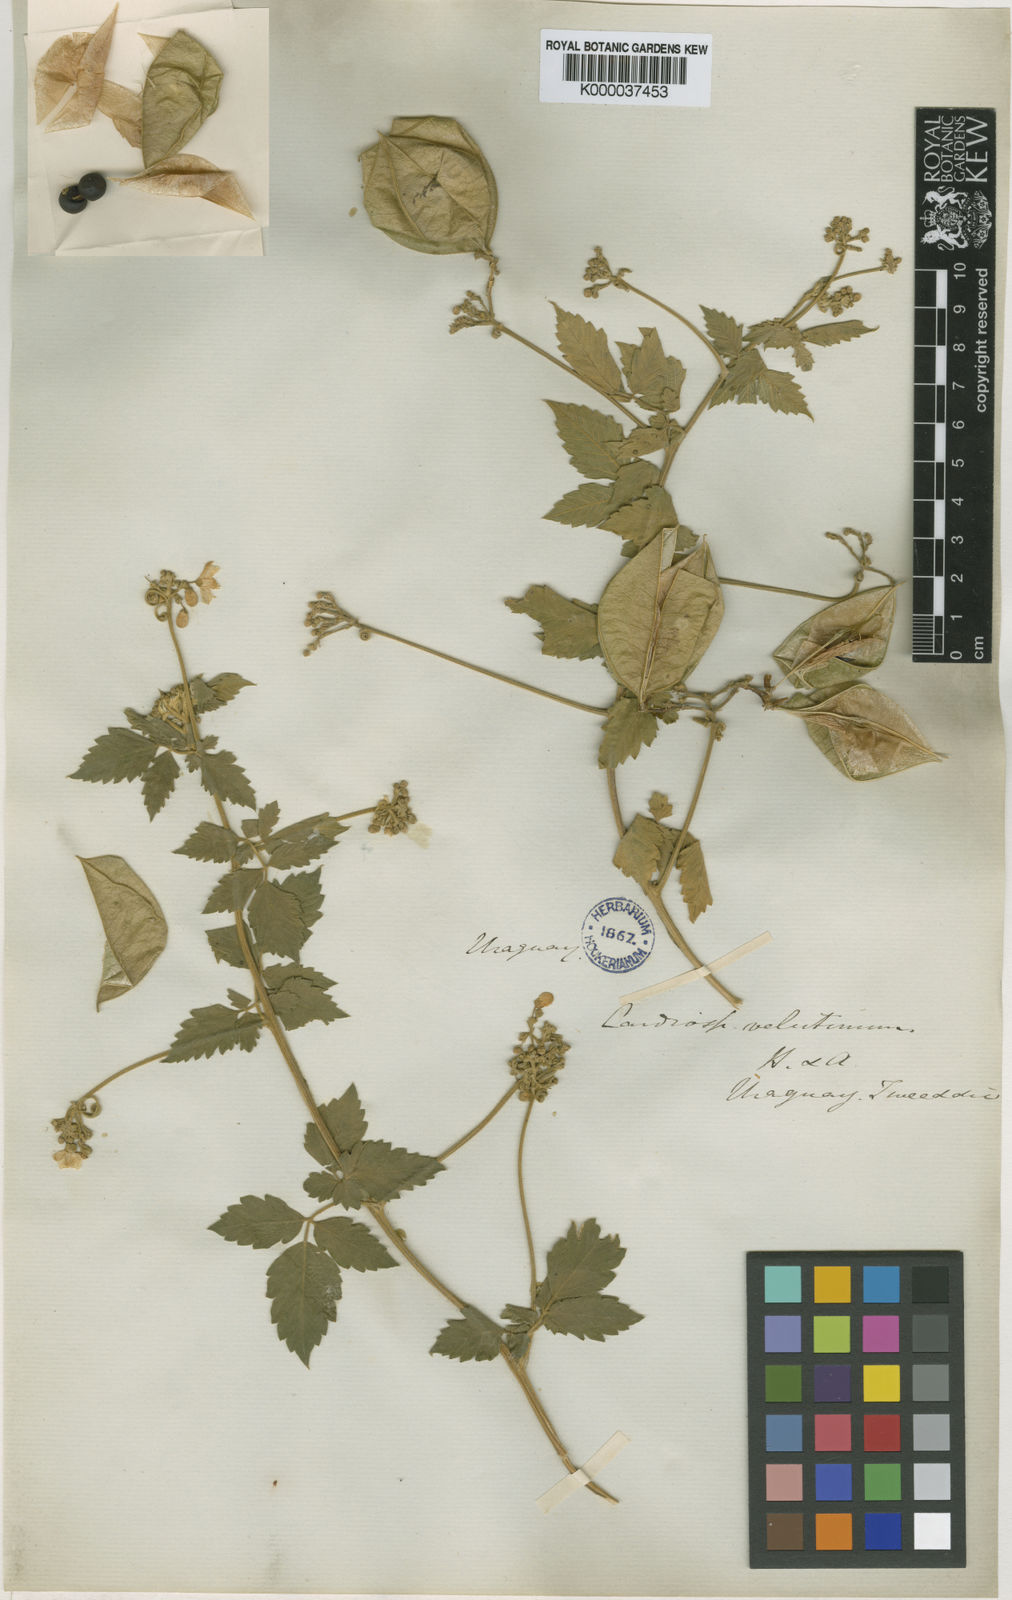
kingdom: Plantae
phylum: Tracheophyta
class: Magnoliopsida
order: Sapindales
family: Sapindaceae
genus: Cardiospermum
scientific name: Cardiospermum grandiflorum
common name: Balloon vine
